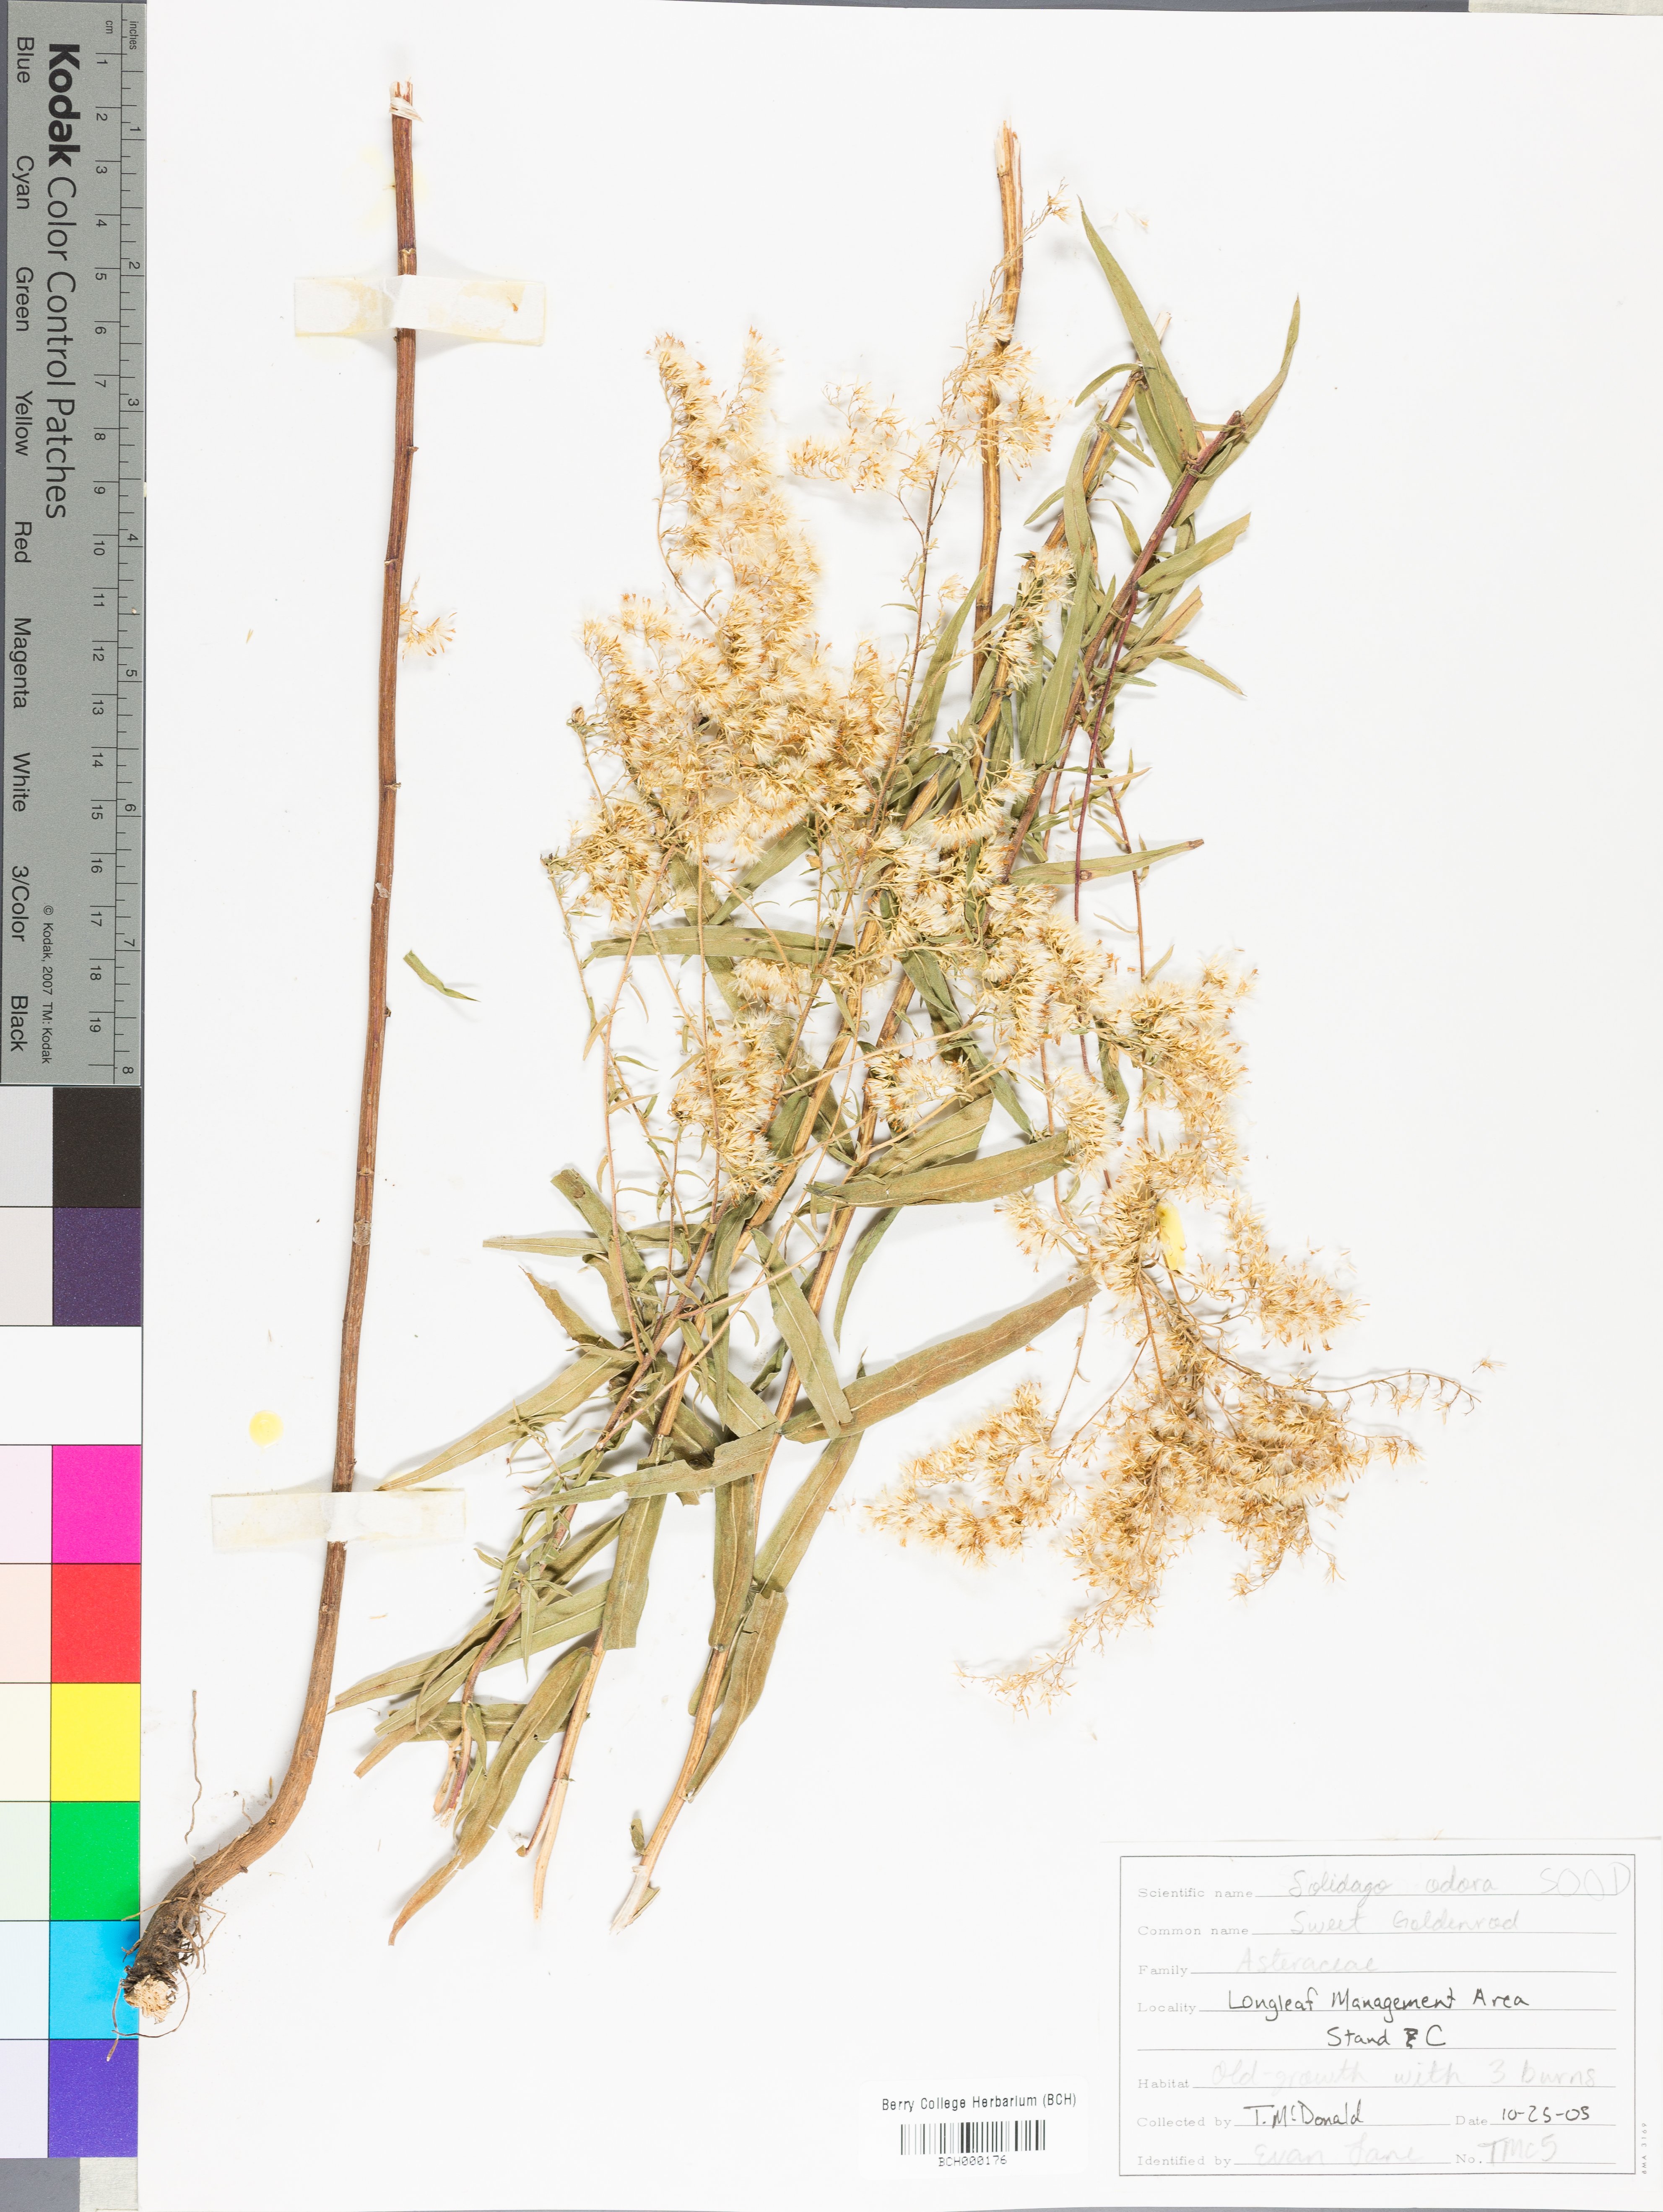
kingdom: Plantae
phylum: Tracheophyta
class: Magnoliopsida
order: Asterales
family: Asteraceae
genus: Solidago
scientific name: Solidago odora
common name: Anise-scented goldenrod
